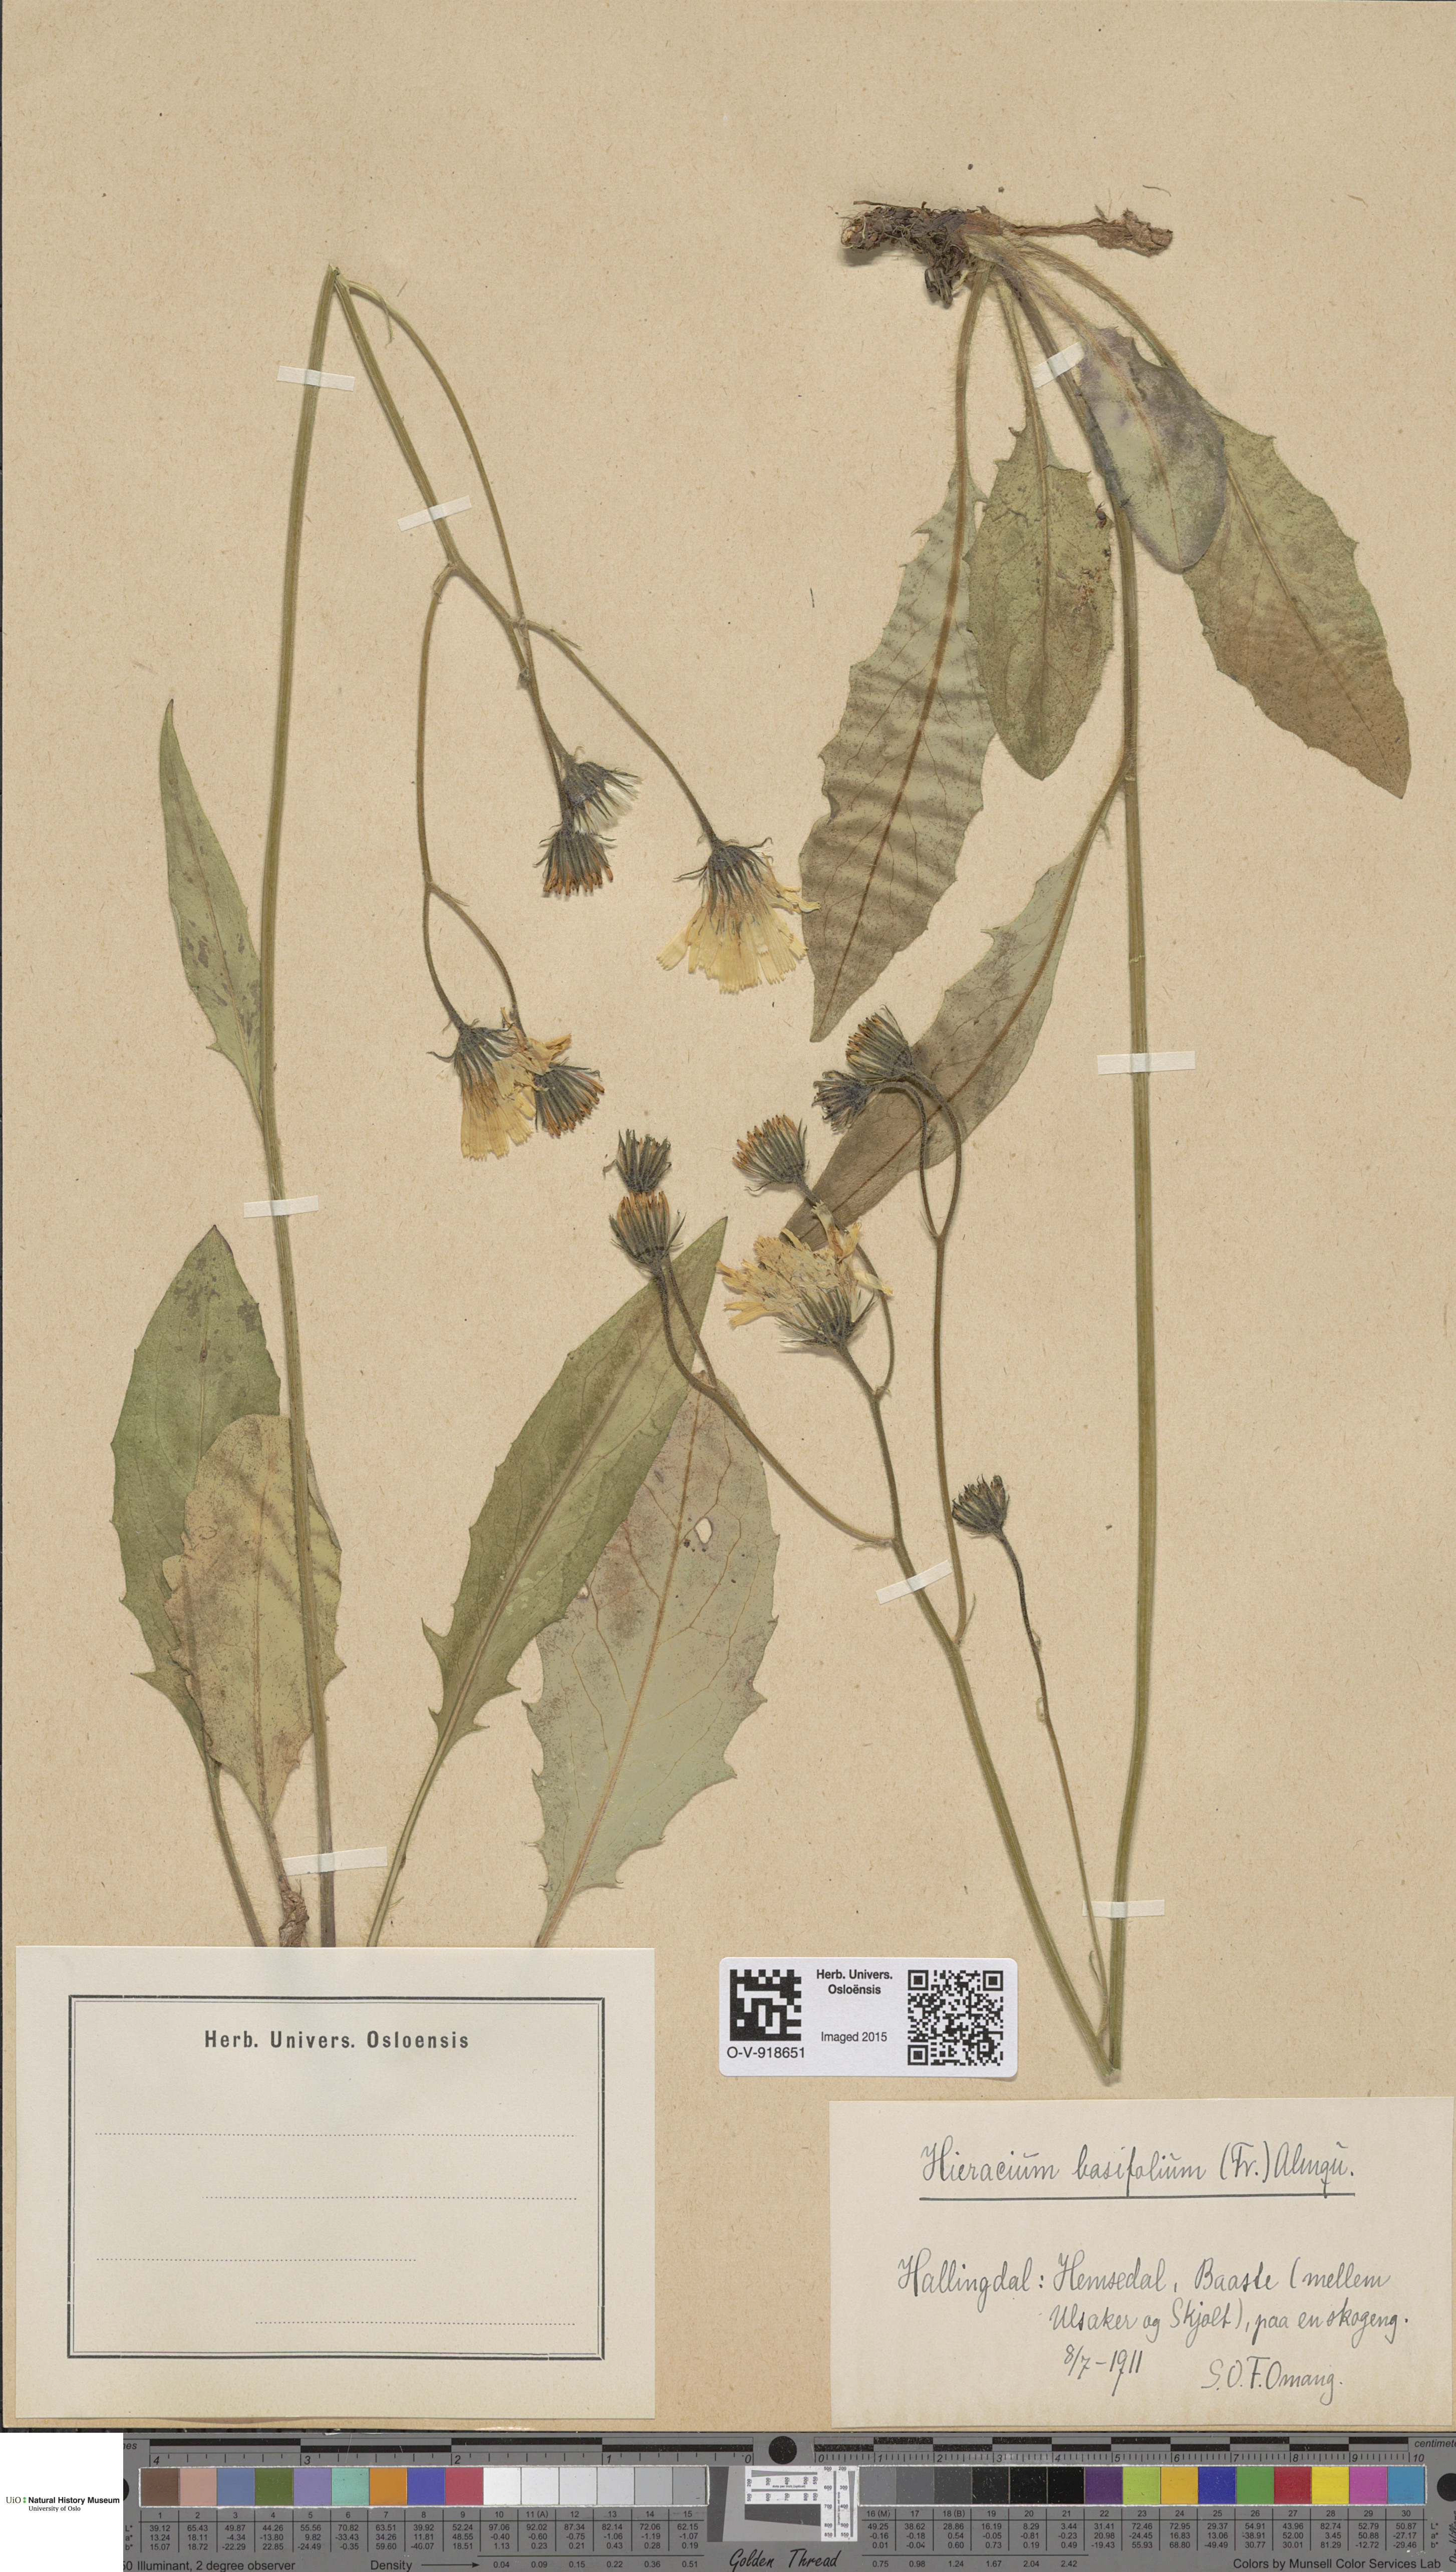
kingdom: Plantae
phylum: Tracheophyta
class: Magnoliopsida
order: Asterales
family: Asteraceae
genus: Hieracium
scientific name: Hieracium basifolium
